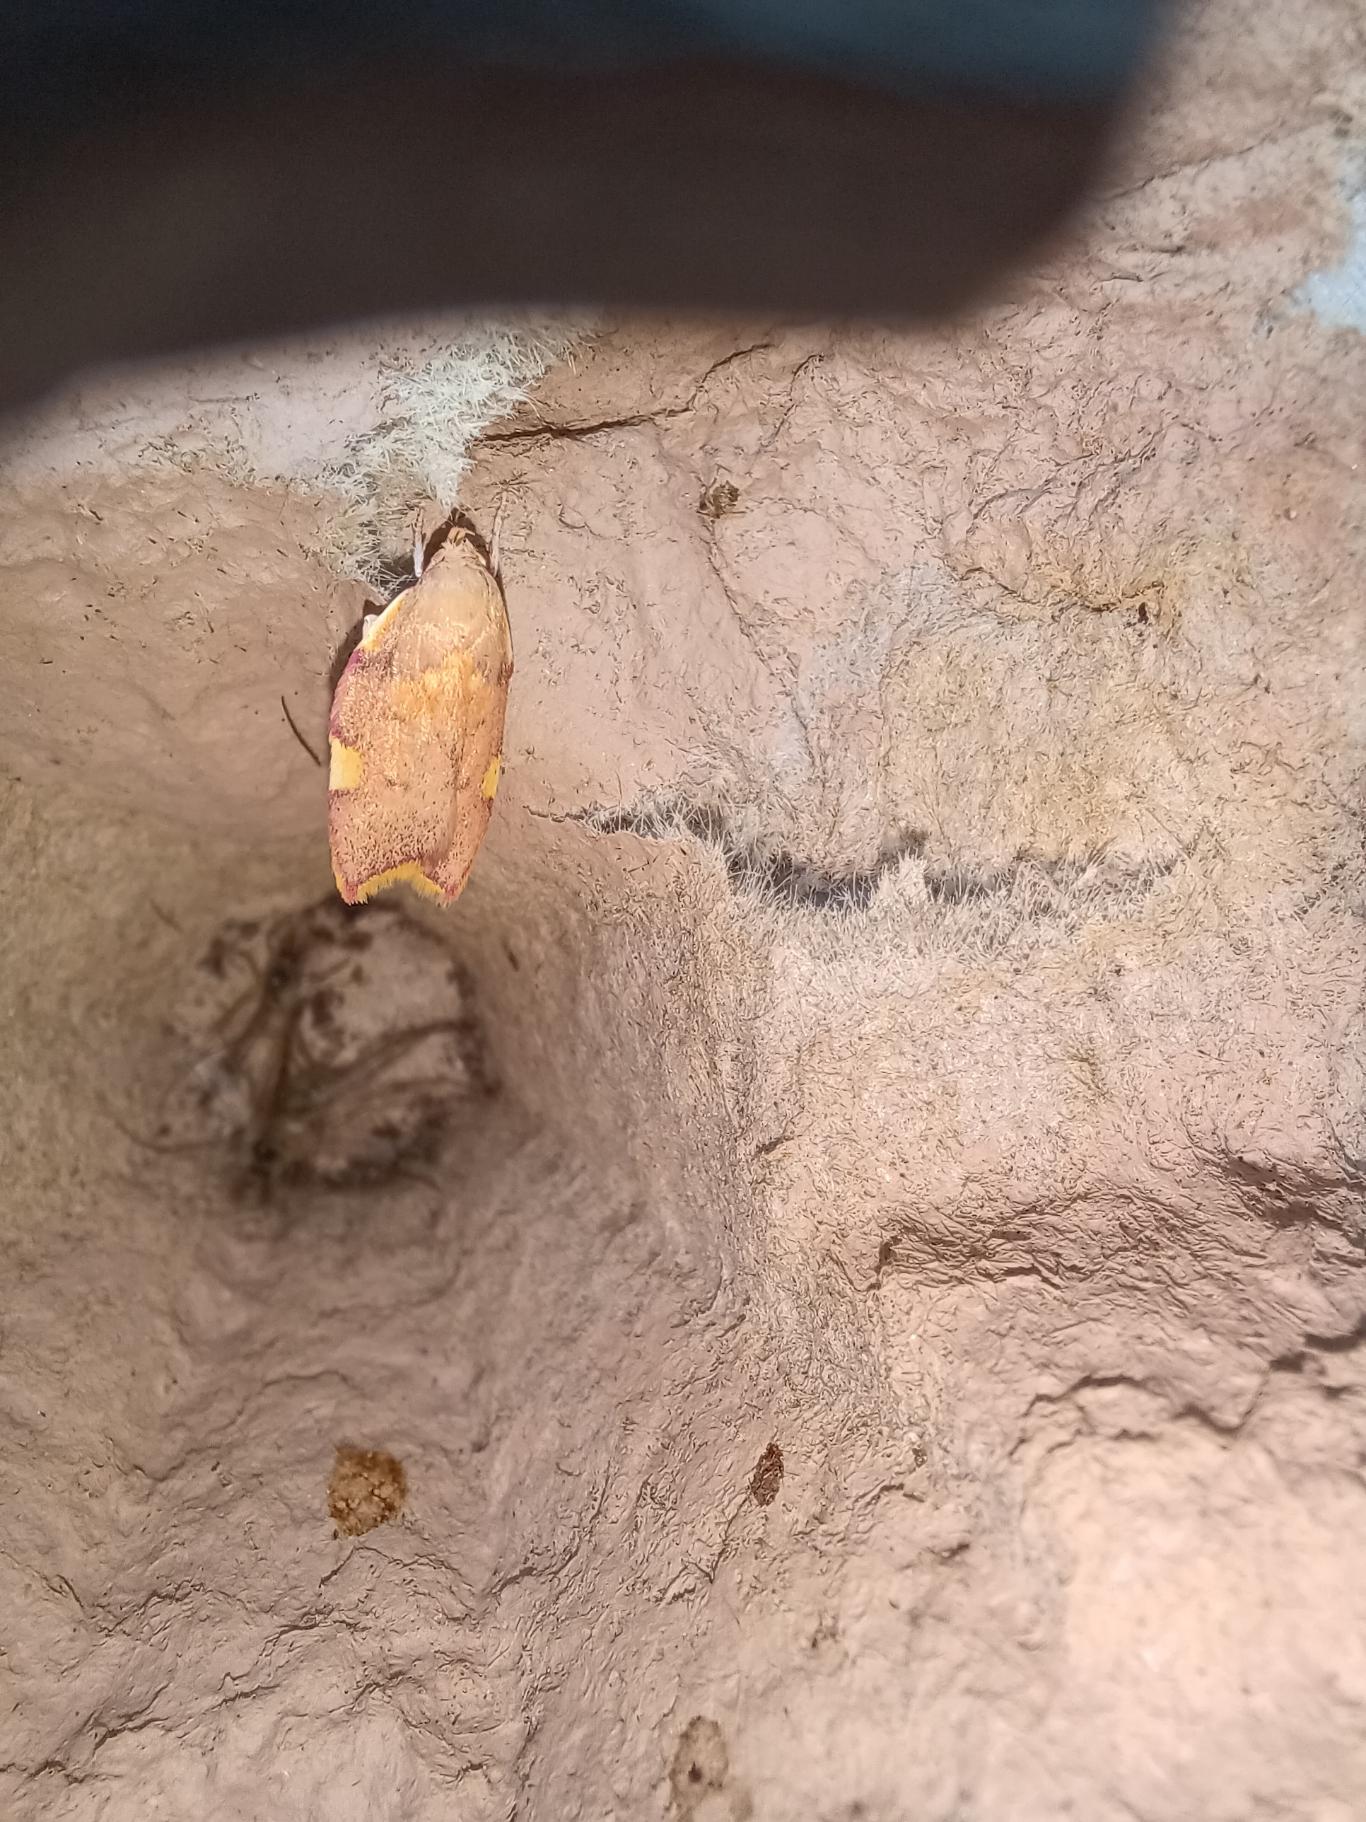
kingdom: Animalia
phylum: Arthropoda
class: Insecta
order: Lepidoptera
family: Peleopodidae
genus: Carcina
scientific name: Carcina quercana
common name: Egeprydvinge
